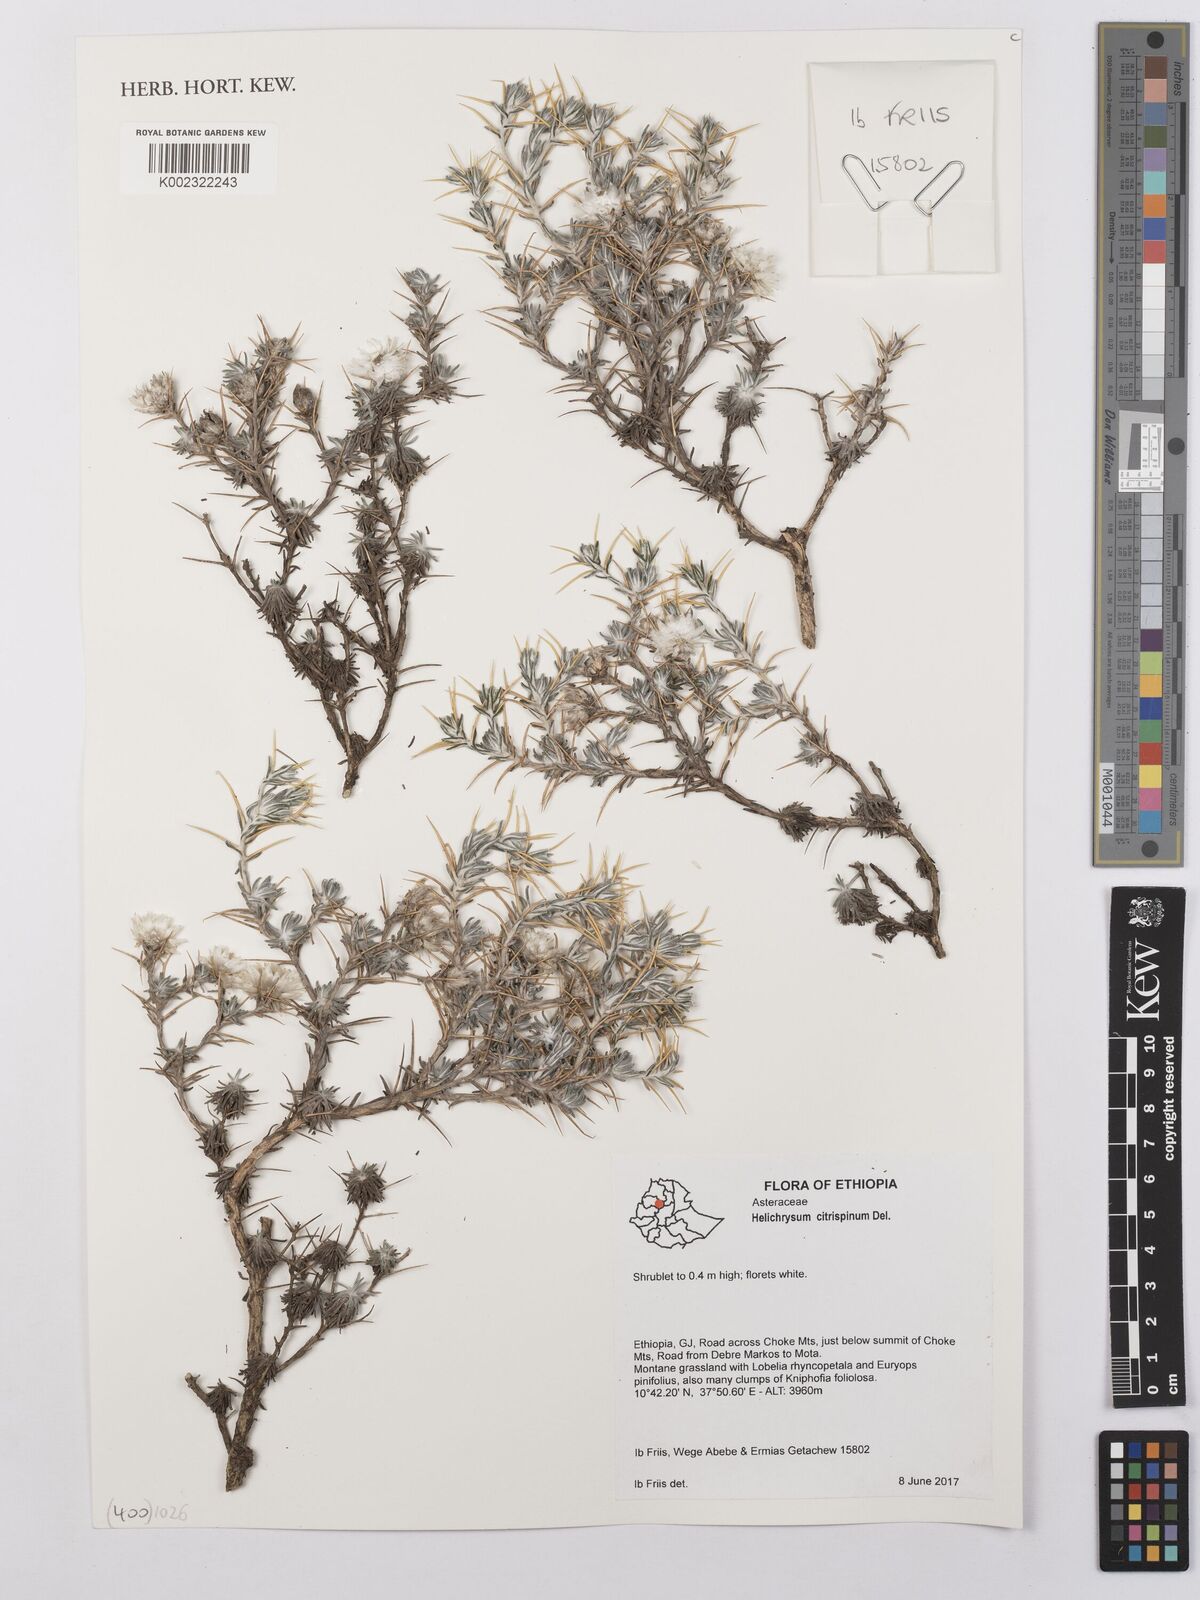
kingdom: Plantae
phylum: Tracheophyta
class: Magnoliopsida
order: Asterales
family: Asteraceae
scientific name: Asteraceae
